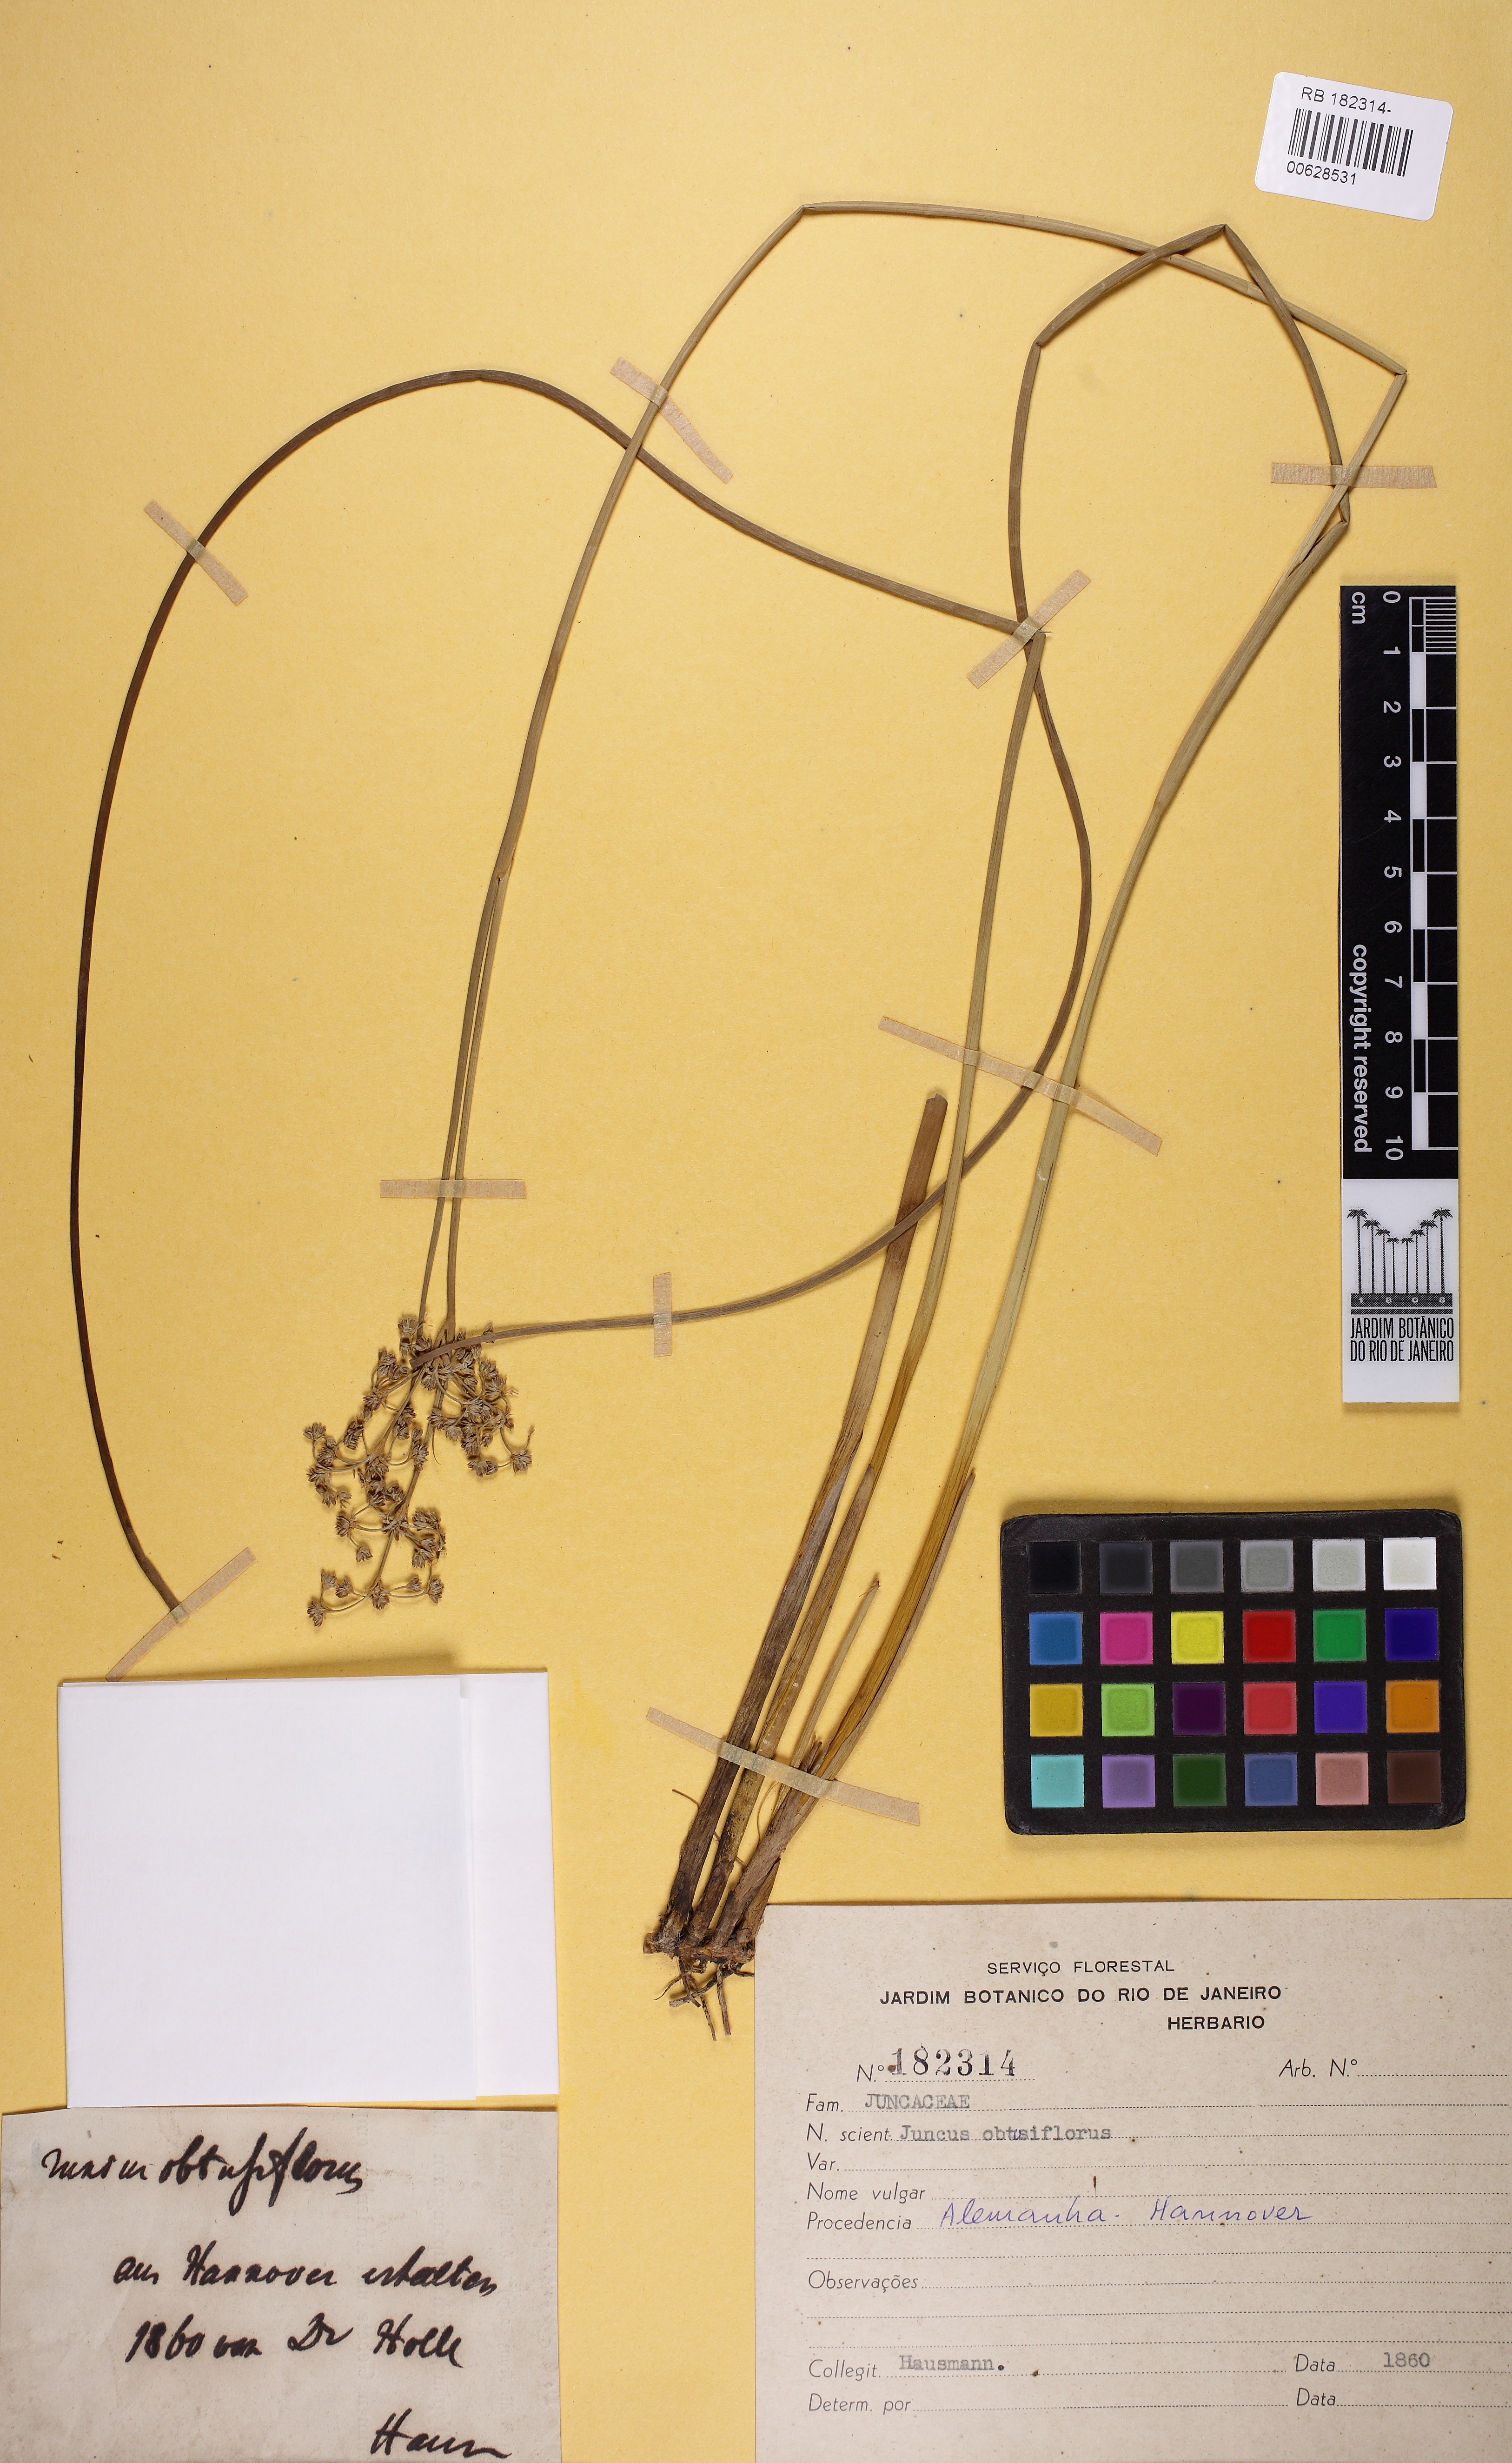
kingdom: Plantae
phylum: Tracheophyta
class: Liliopsida
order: Poales
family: Juncaceae
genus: Juncus
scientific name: Juncus subnodulosus
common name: Blunt-flowered rush
